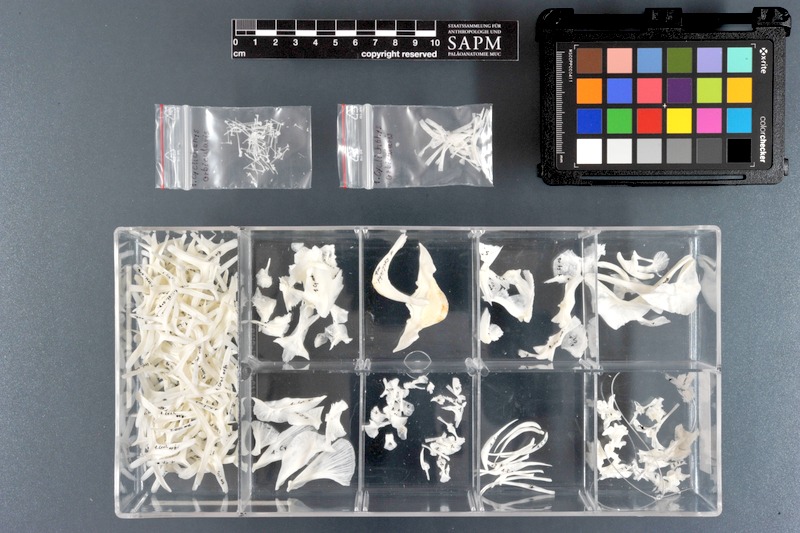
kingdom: Animalia
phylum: Chordata
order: Tetraodontiformes
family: Diodontidae
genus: Cyclichthys
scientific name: Cyclichthys orbicularis
